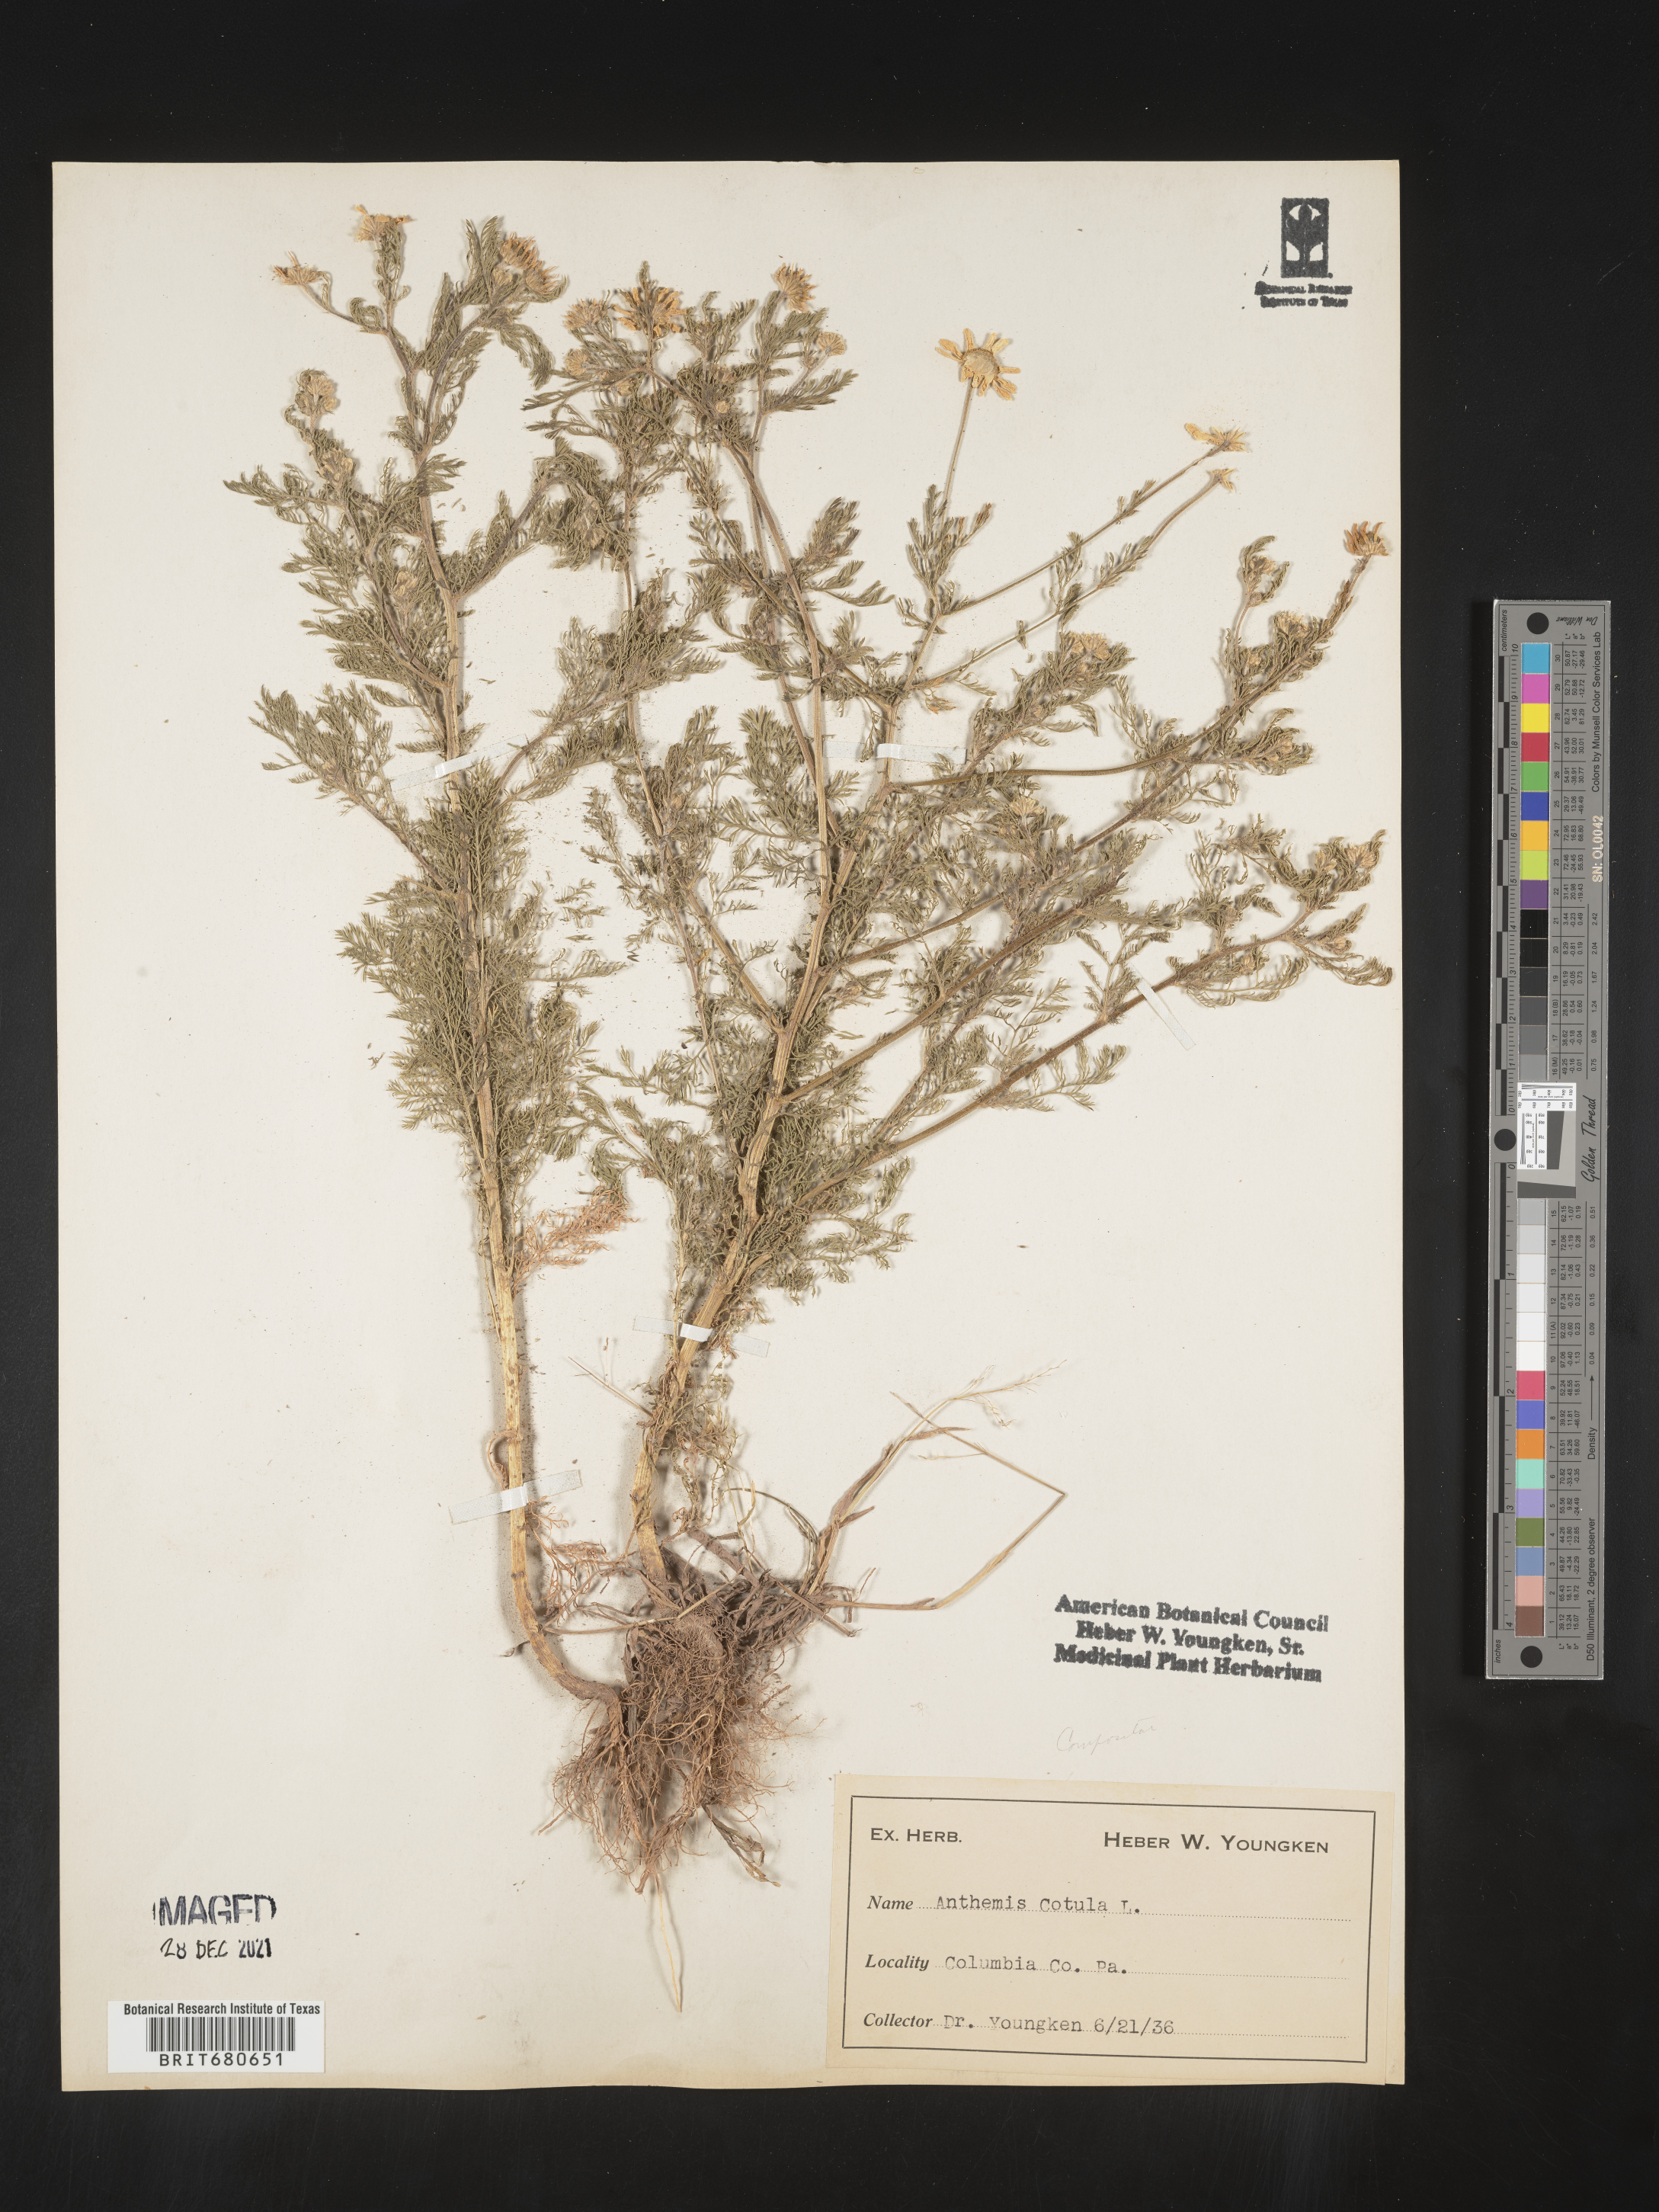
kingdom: Plantae
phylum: Tracheophyta
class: Magnoliopsida
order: Asterales
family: Asteraceae
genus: Anthemis
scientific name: Anthemis cotula
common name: Stinking chamomile
